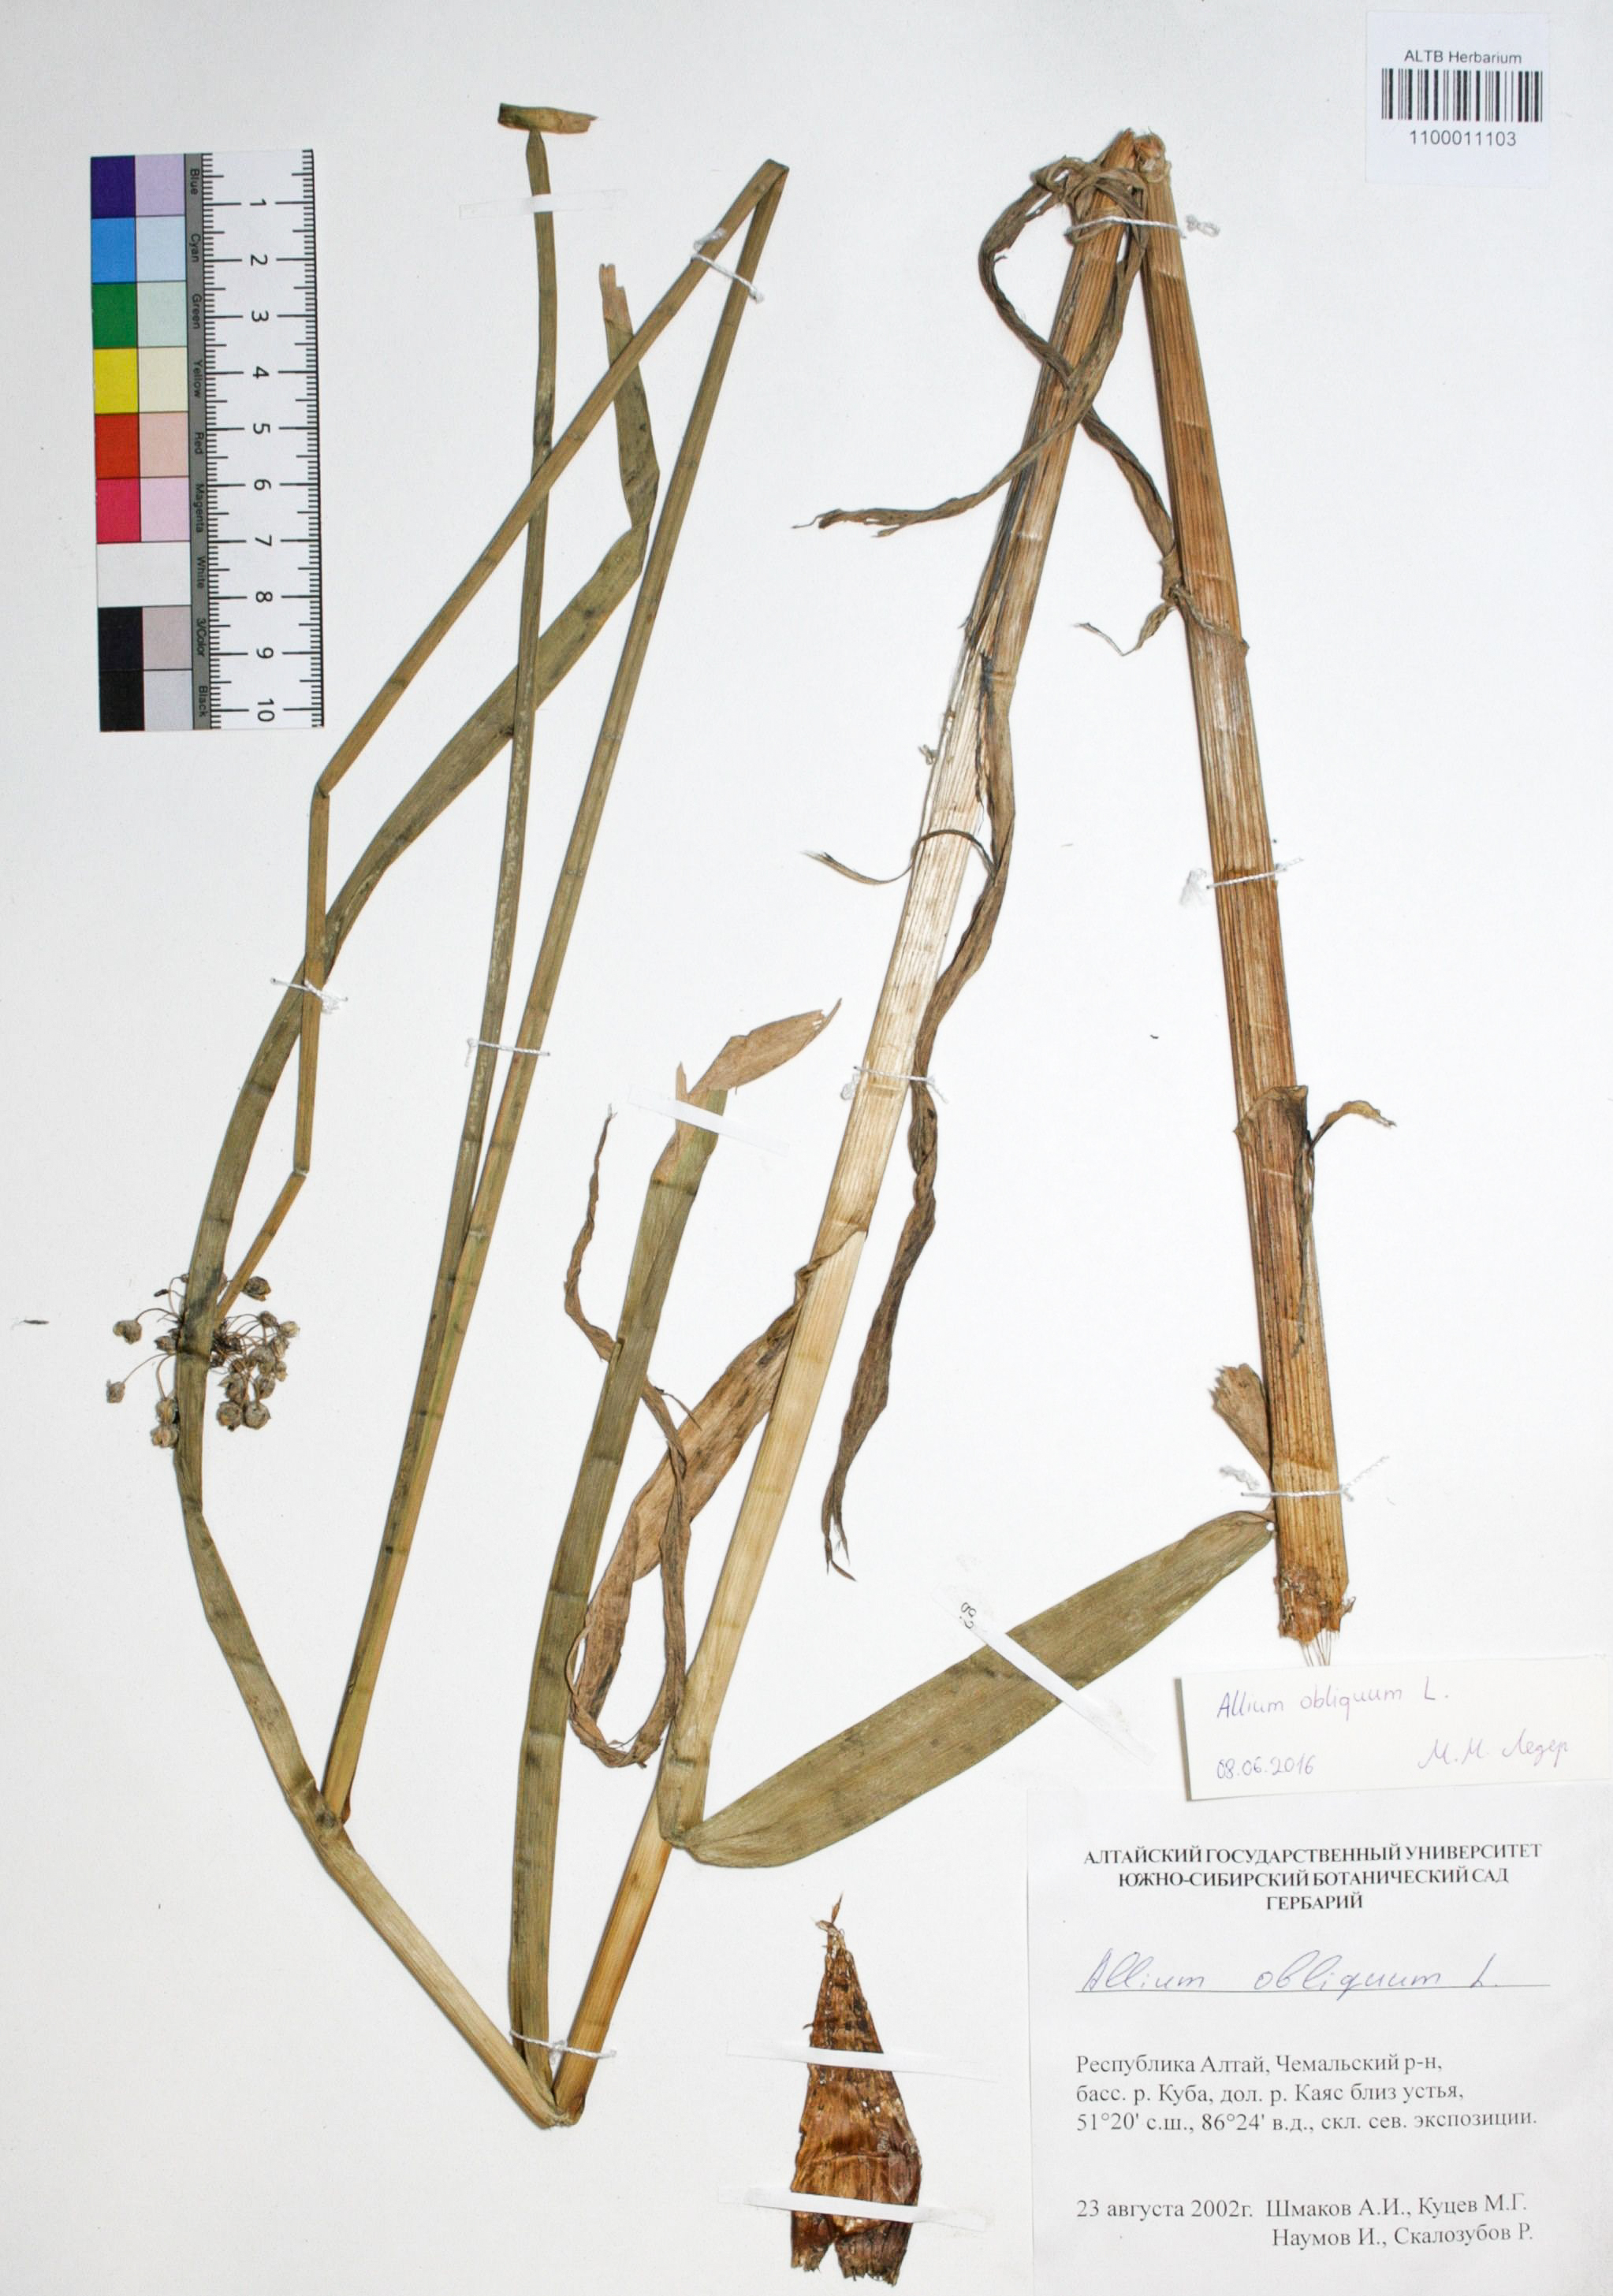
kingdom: Plantae
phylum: Tracheophyta
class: Liliopsida
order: Asparagales
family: Amaryllidaceae
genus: Allium
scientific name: Allium obliquum
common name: Oblique onion
